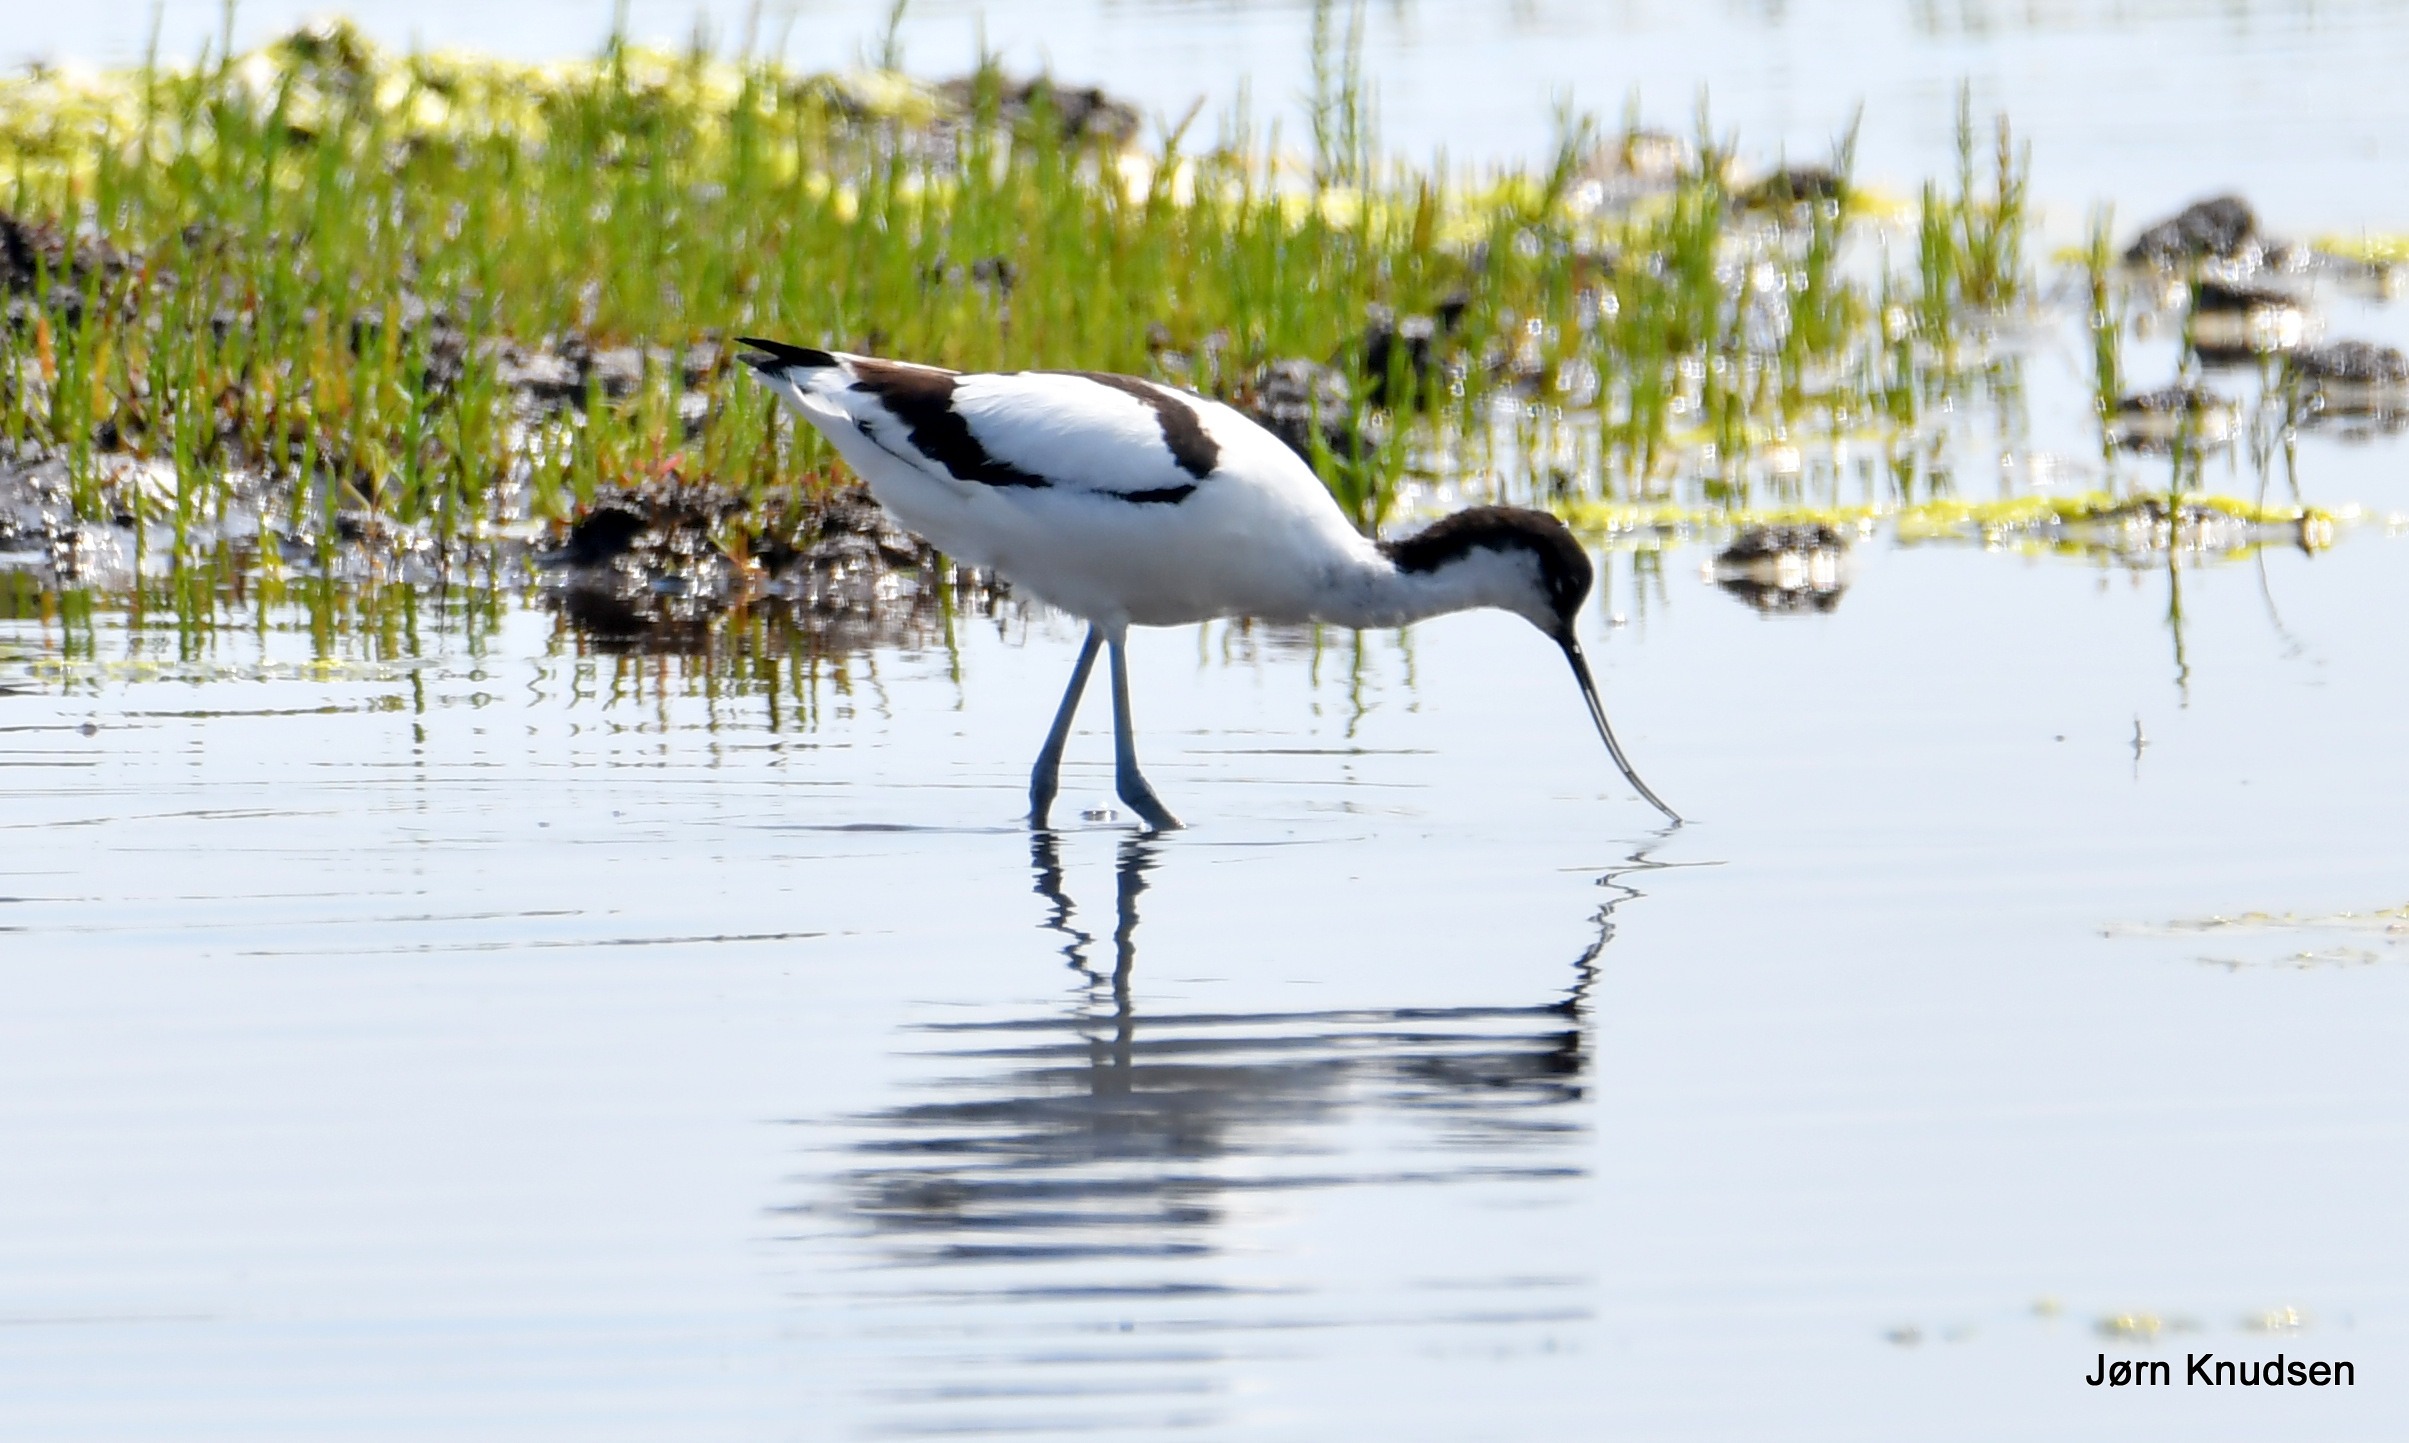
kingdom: Animalia
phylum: Chordata
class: Aves
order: Charadriiformes
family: Recurvirostridae
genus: Recurvirostra
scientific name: Recurvirostra avosetta
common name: Klyde
